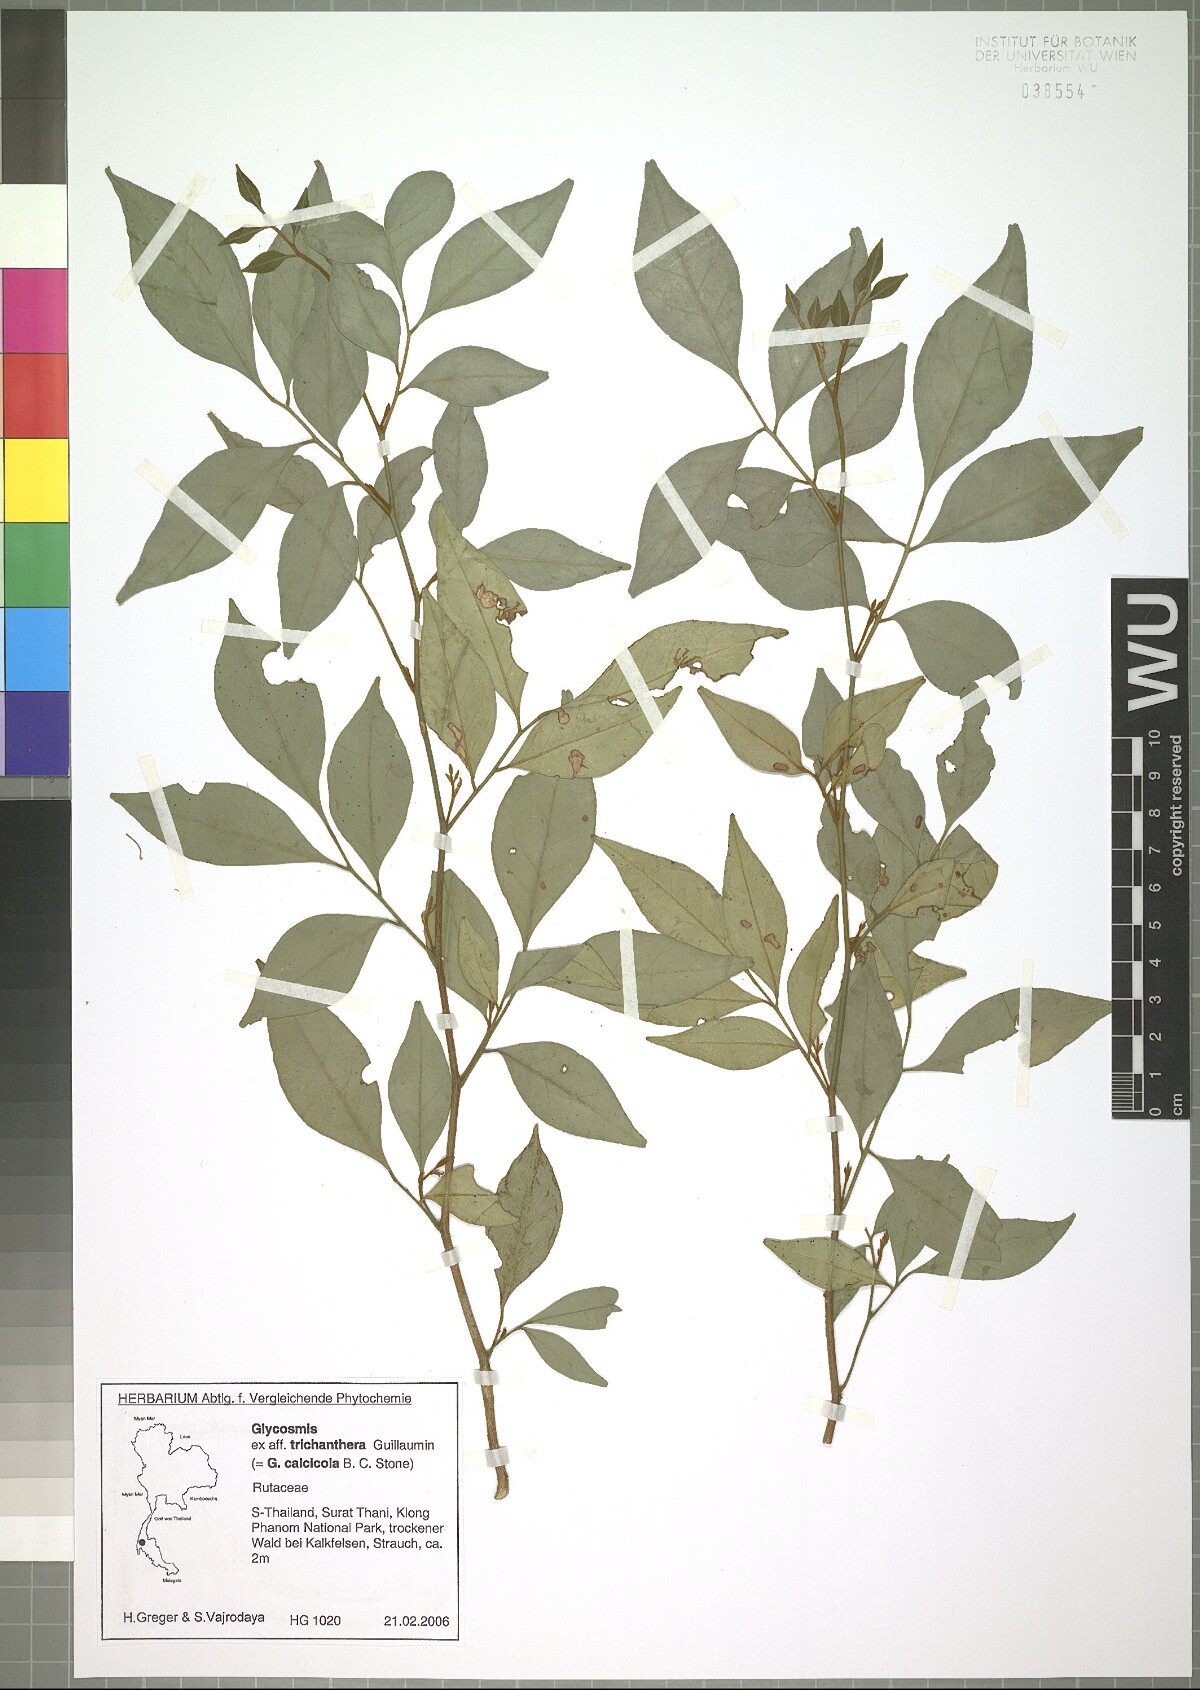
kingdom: Plantae
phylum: Tracheophyta
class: Magnoliopsida
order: Sapindales
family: Rutaceae
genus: Glycosmis
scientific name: Glycosmis trichanthera
